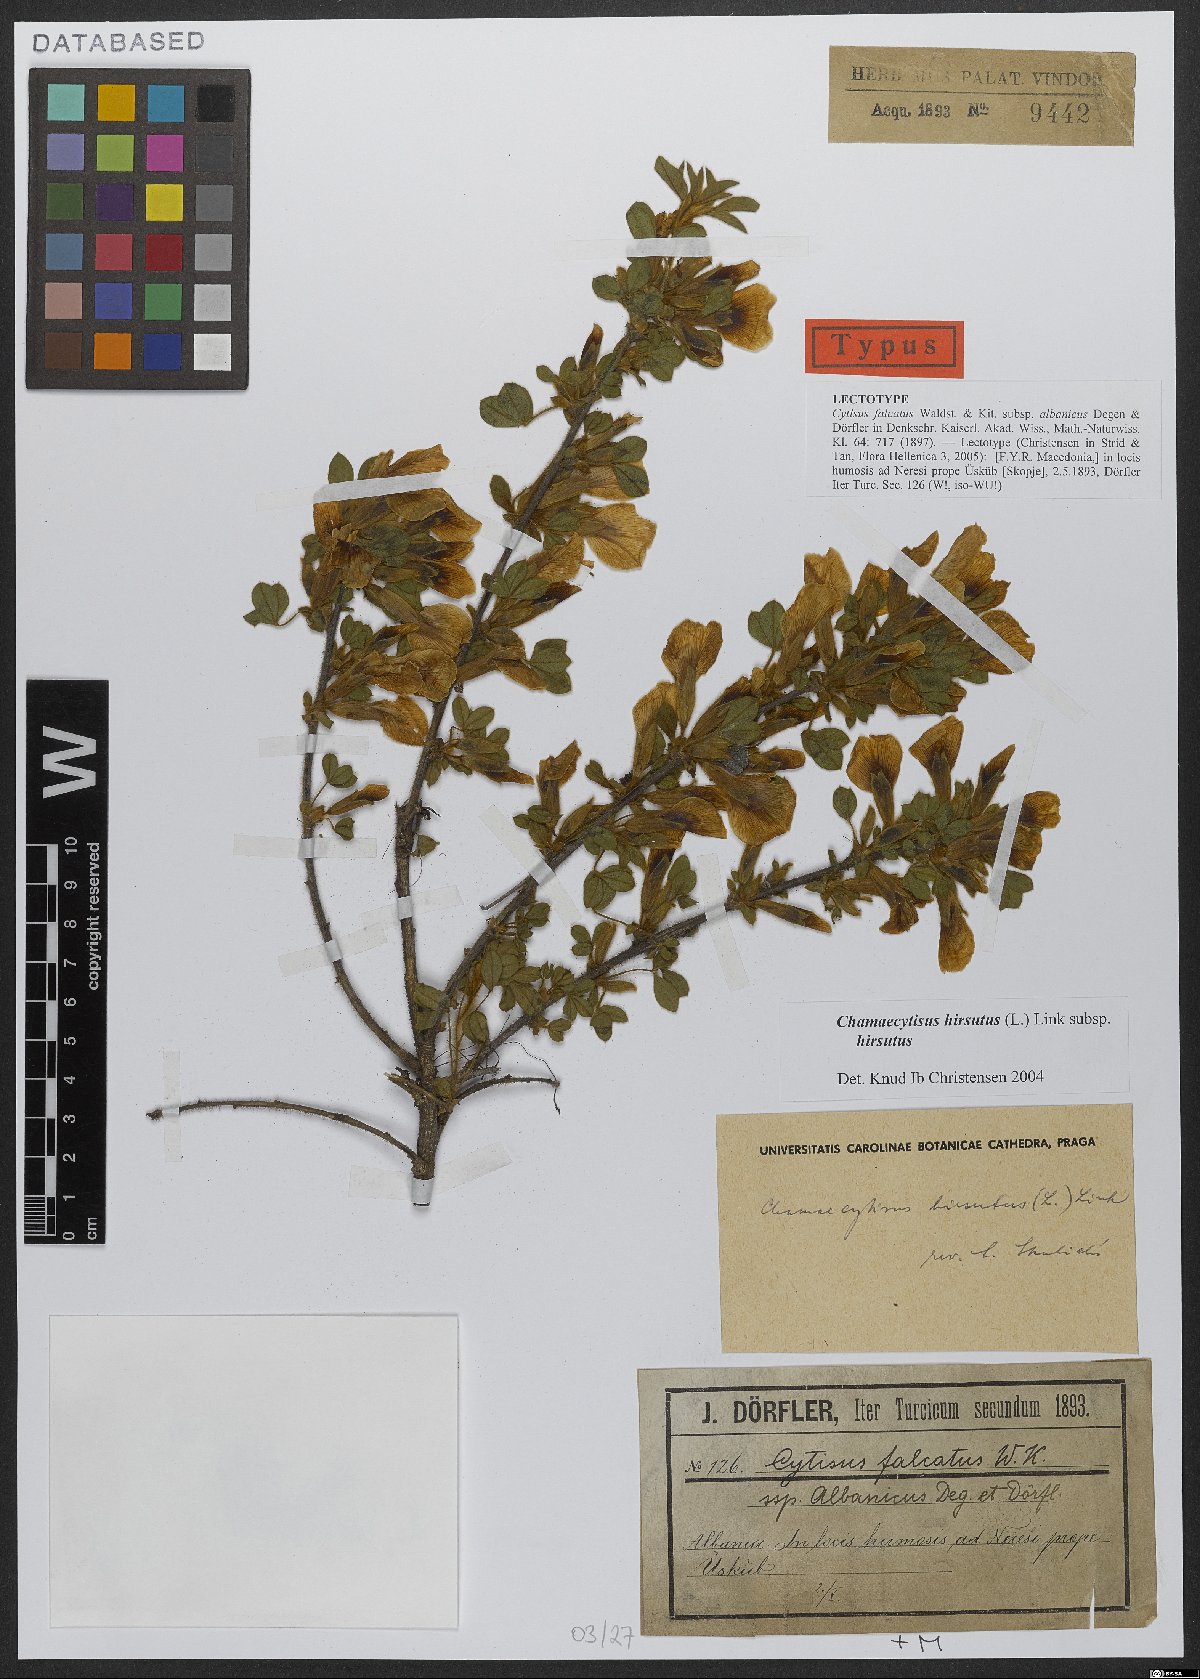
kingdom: Plantae
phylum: Tracheophyta
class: Magnoliopsida
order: Fabales
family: Fabaceae
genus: Chamaecytisus
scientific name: Chamaecytisus hirsutus
